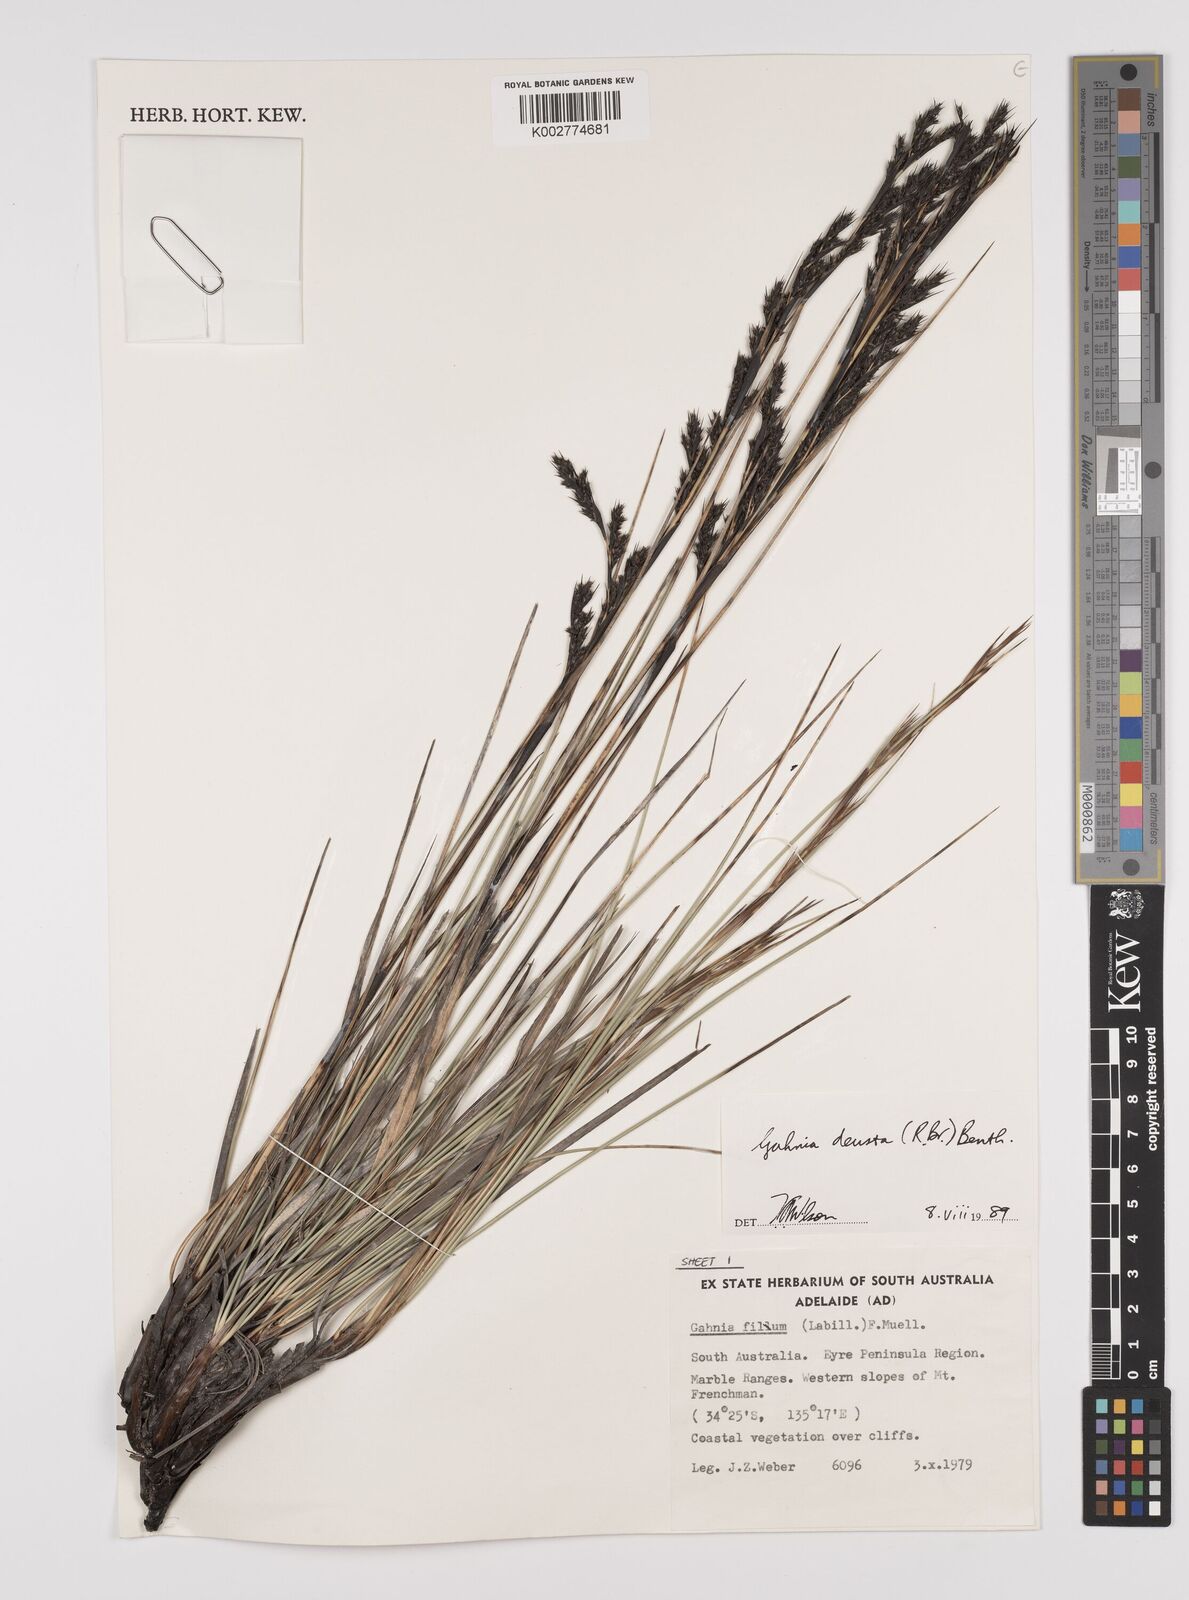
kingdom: Plantae
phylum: Tracheophyta
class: Liliopsida
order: Poales
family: Cyperaceae
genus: Gahnia
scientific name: Gahnia deusta
